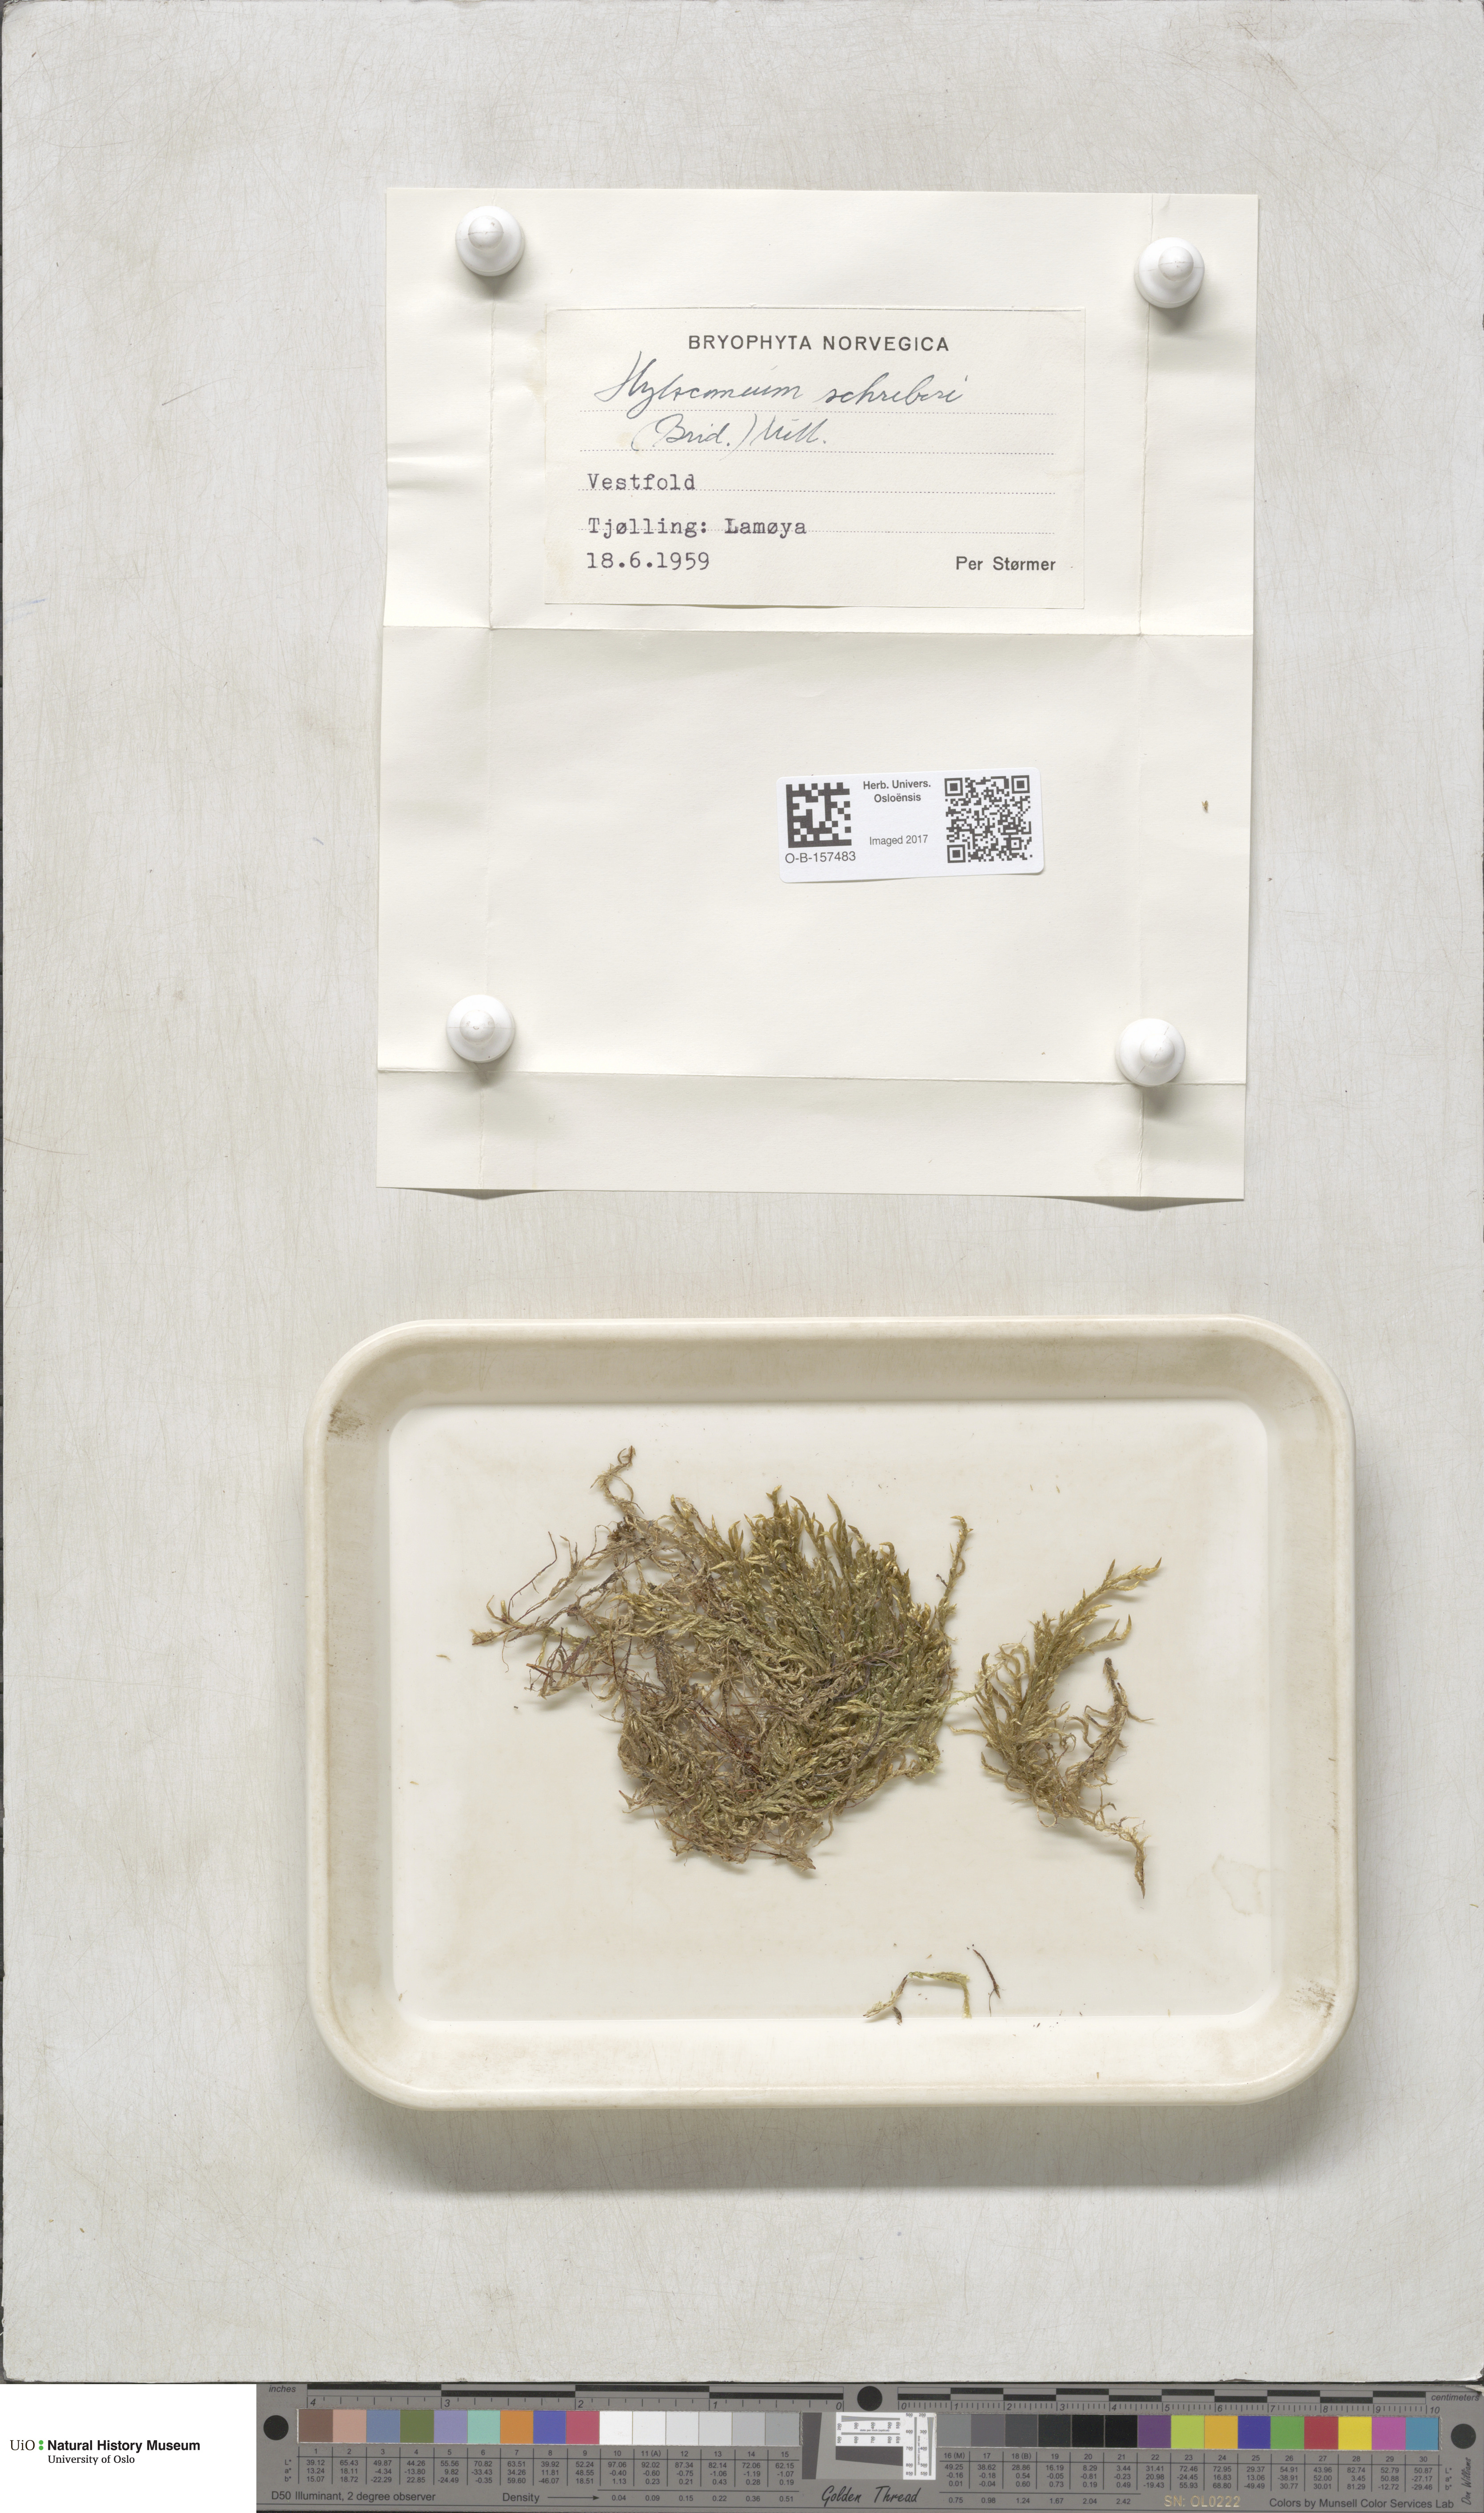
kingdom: Plantae
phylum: Bryophyta
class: Bryopsida
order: Hypnales
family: Hylocomiaceae
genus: Pleurozium
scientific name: Pleurozium schreberi
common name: Red-stemmed feather moss
